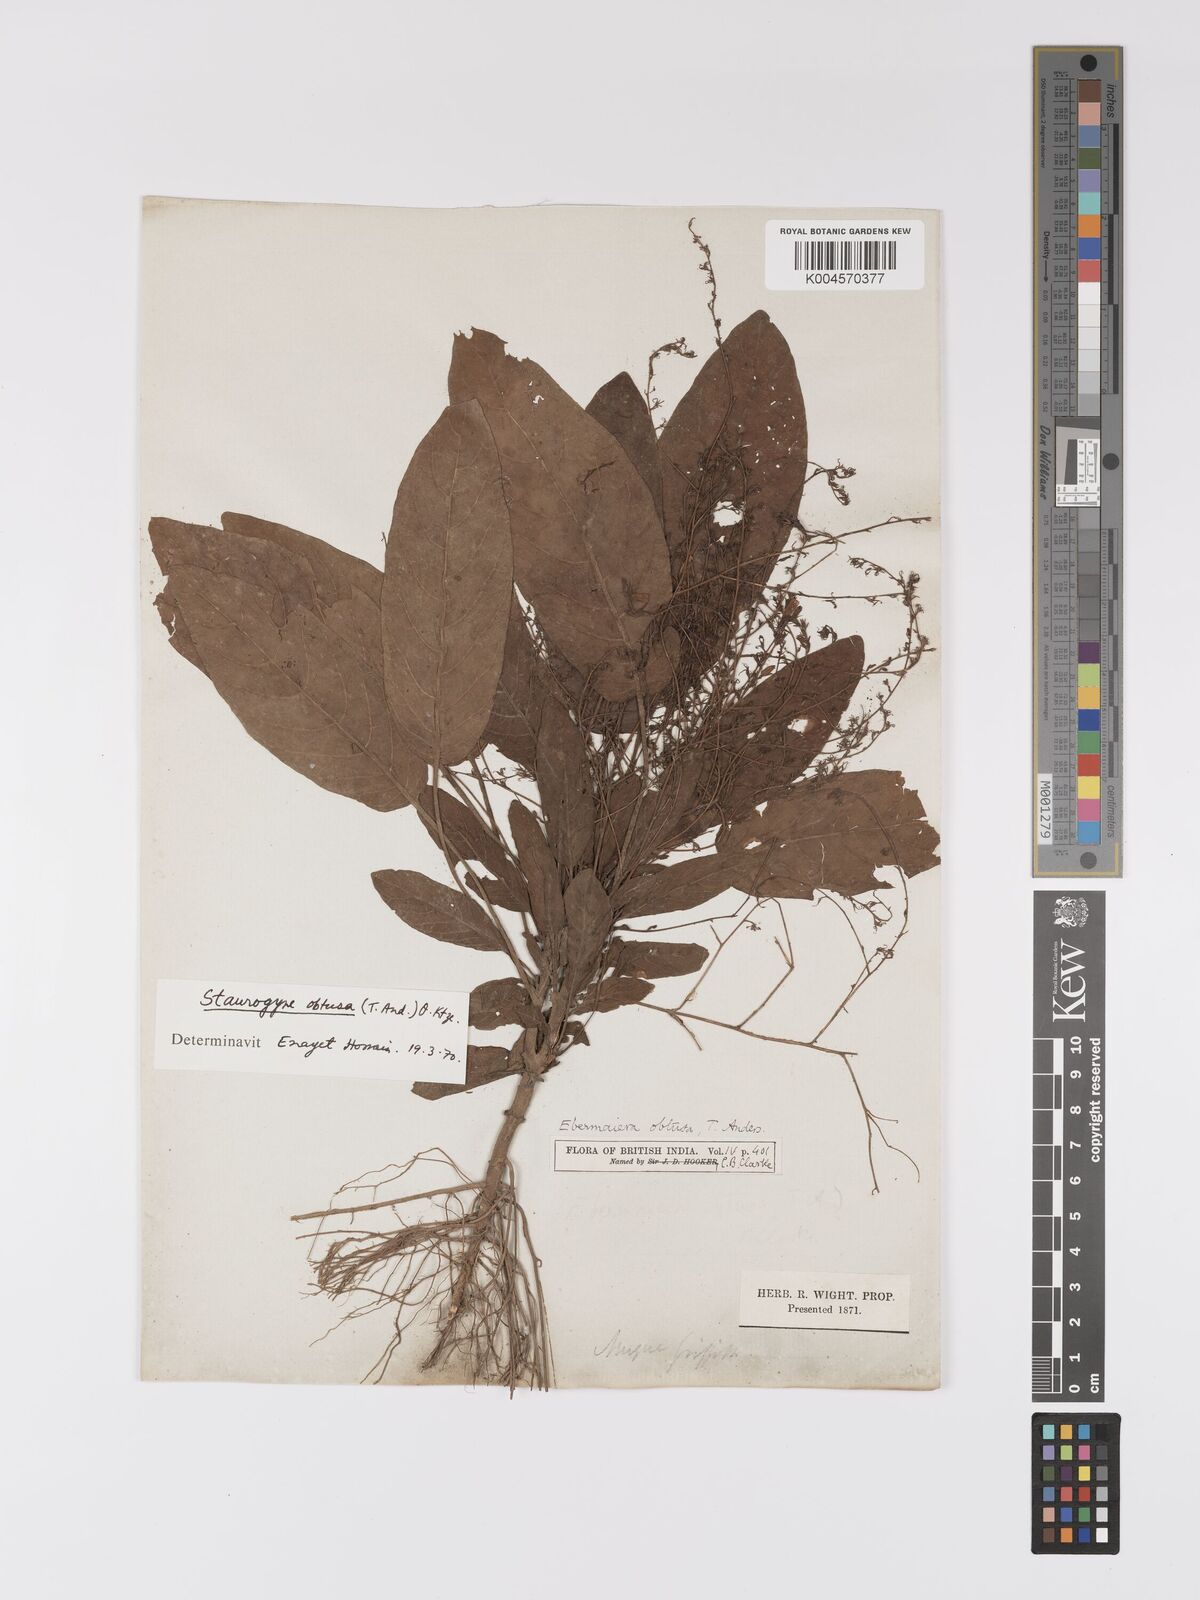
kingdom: Plantae
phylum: Tracheophyta
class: Magnoliopsida
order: Lamiales
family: Acanthaceae
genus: Staurogyne
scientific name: Staurogyne obtusa
